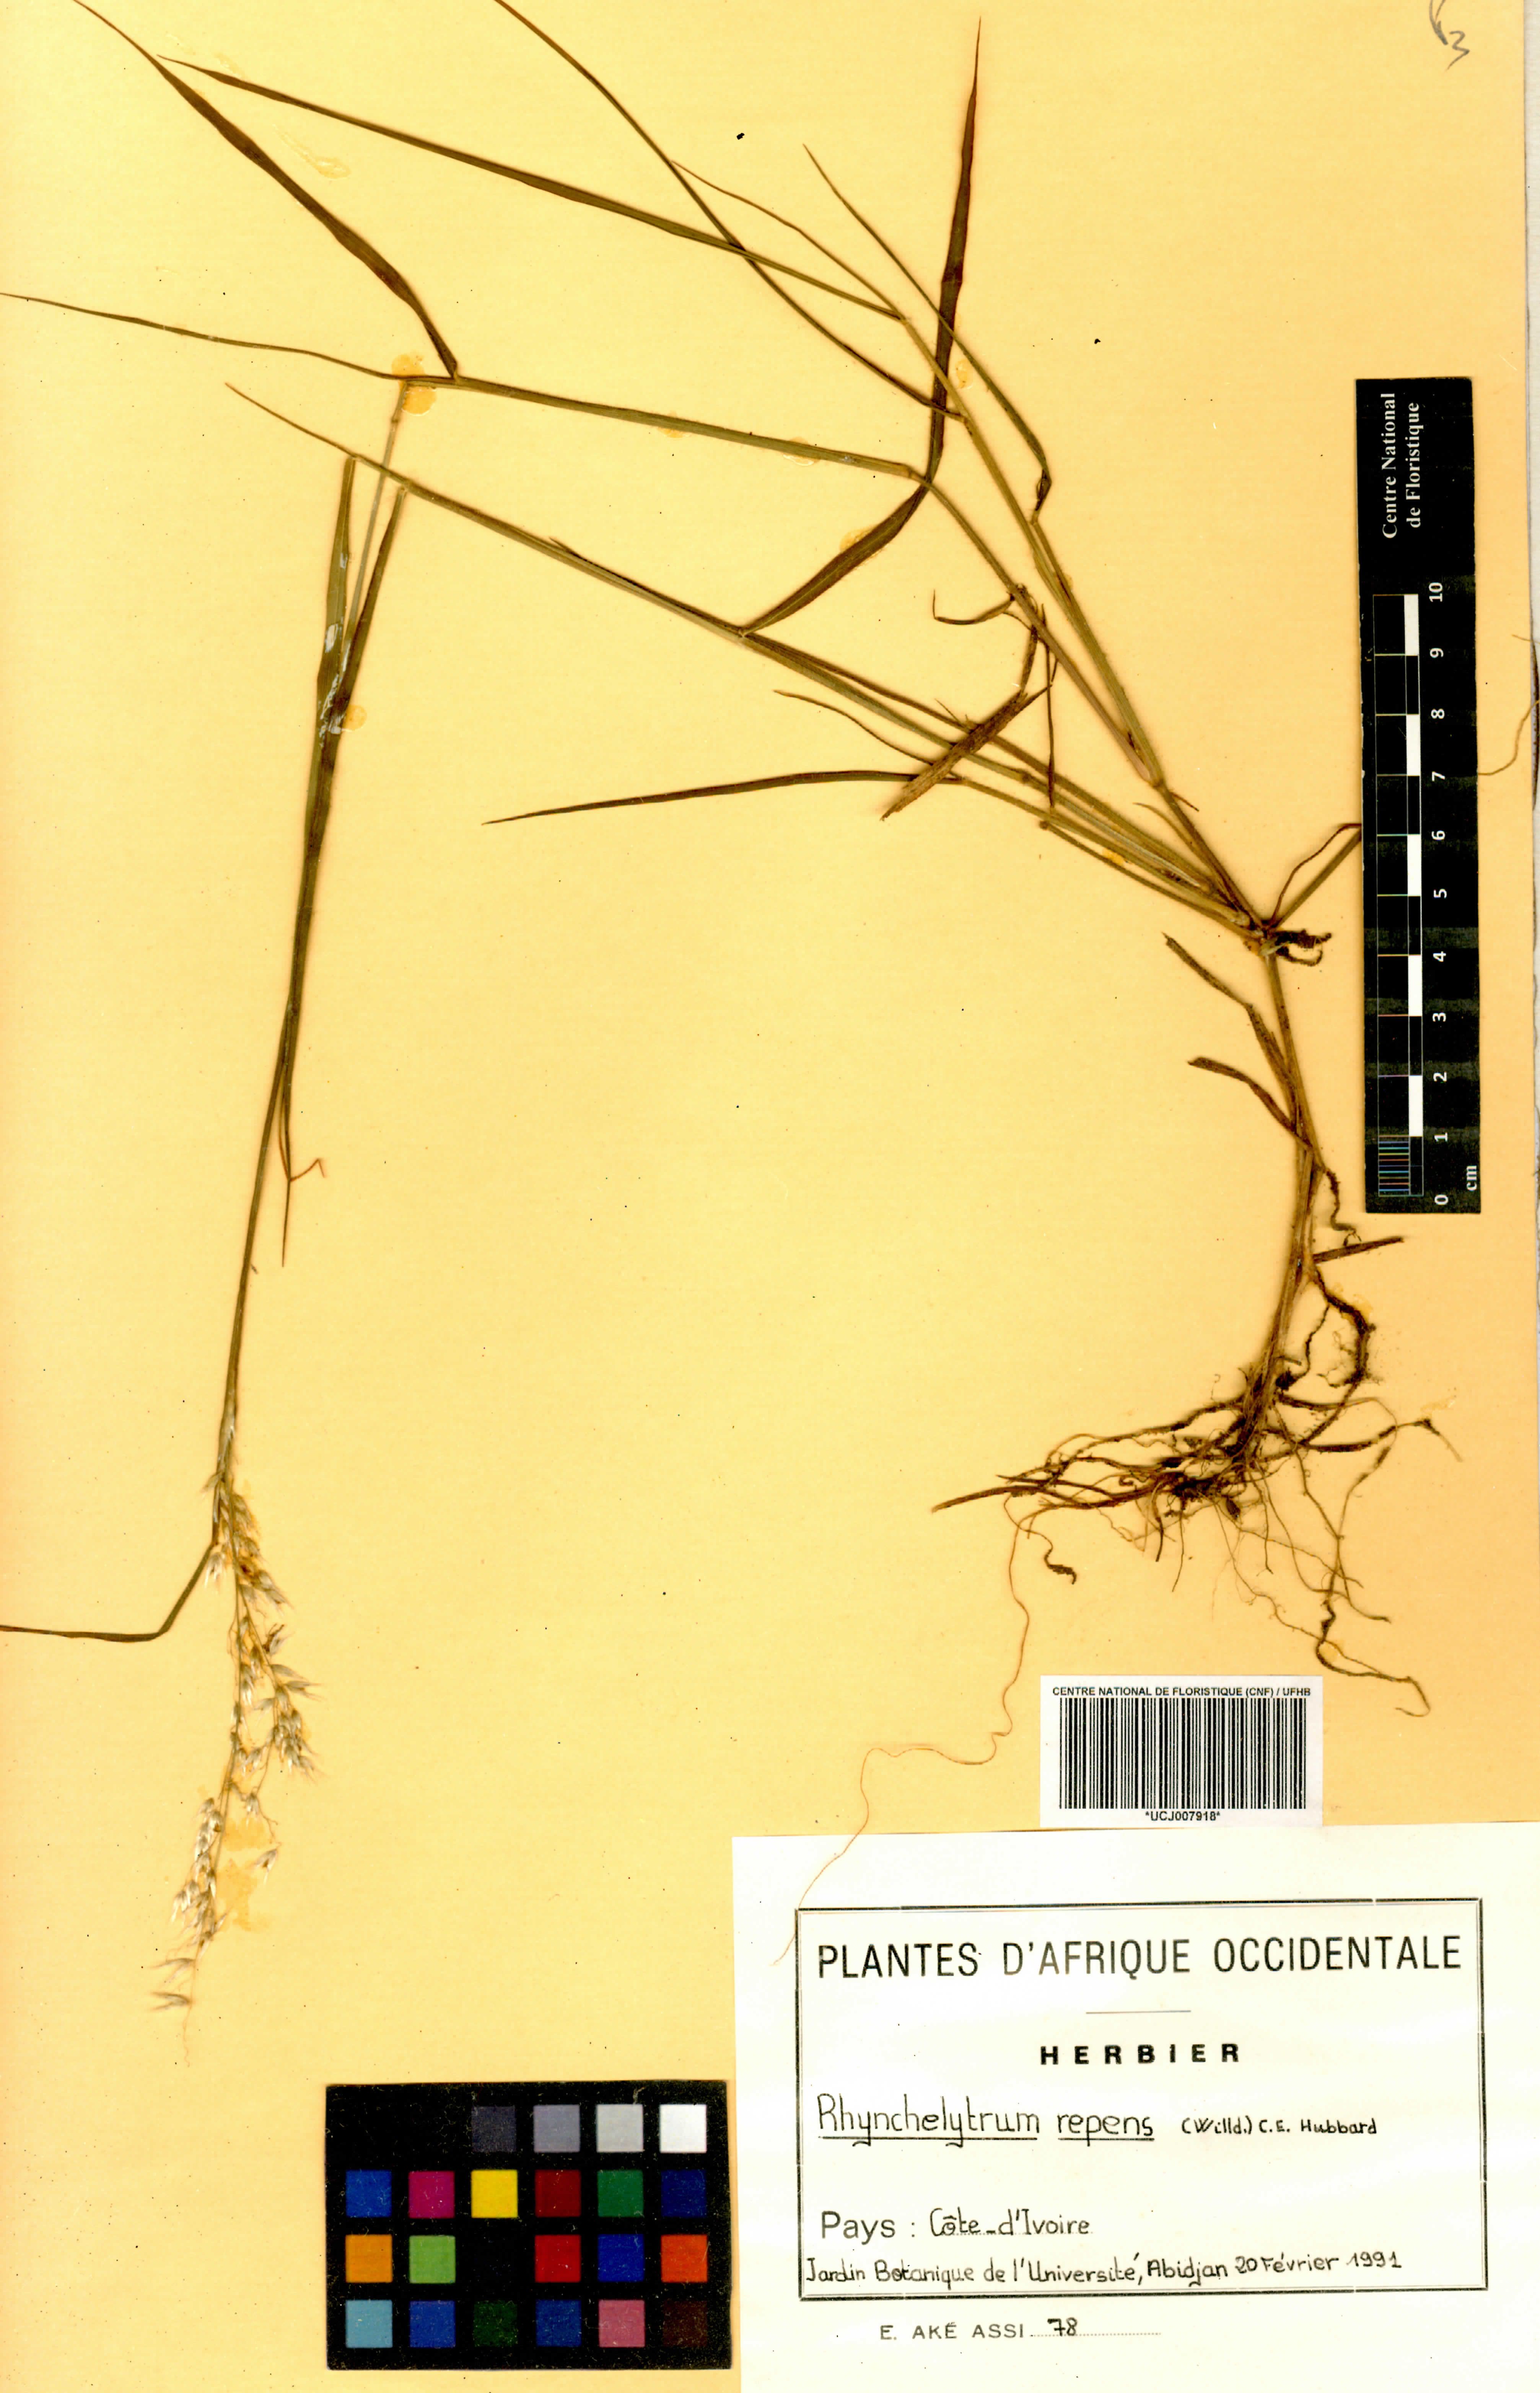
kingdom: Plantae
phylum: Tracheophyta
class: Liliopsida
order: Poales
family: Poaceae
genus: Melinis
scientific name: Melinis repens
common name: Rose natal grass
